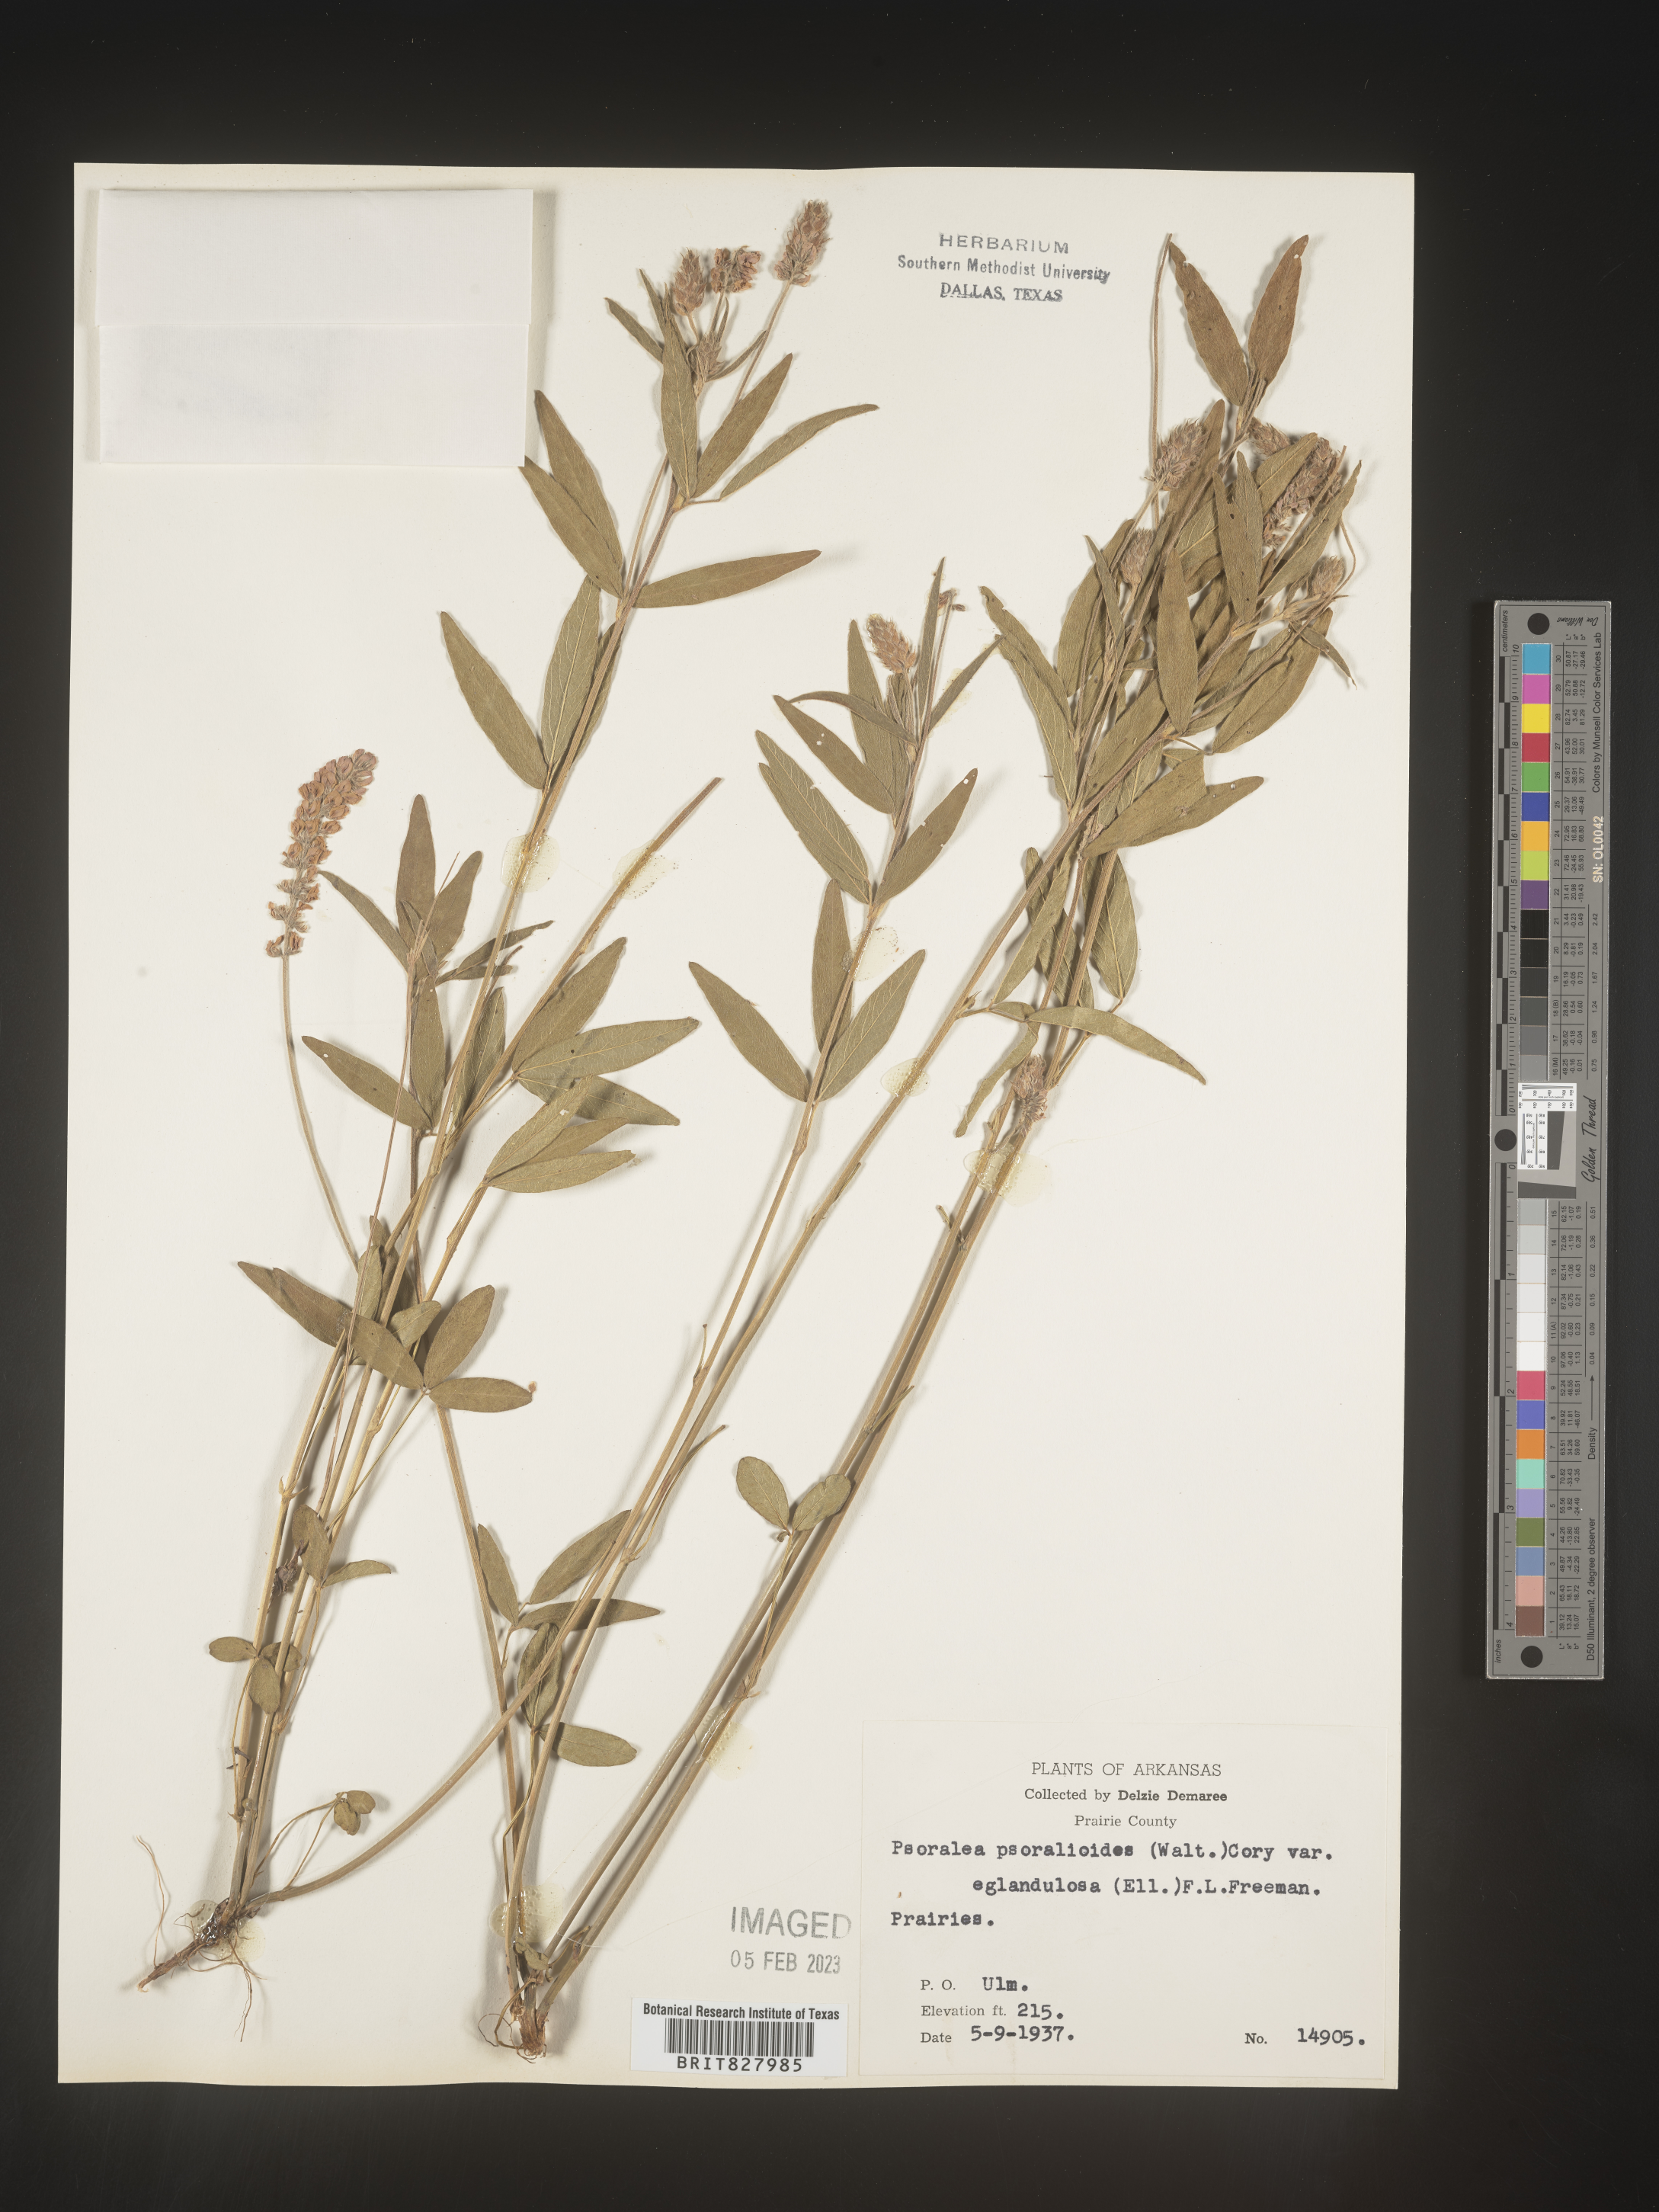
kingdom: Plantae
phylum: Tracheophyta
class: Magnoliopsida
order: Fabales
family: Fabaceae
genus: Orbexilum
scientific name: Orbexilum pedunculatum
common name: Sampson's snakeroot
